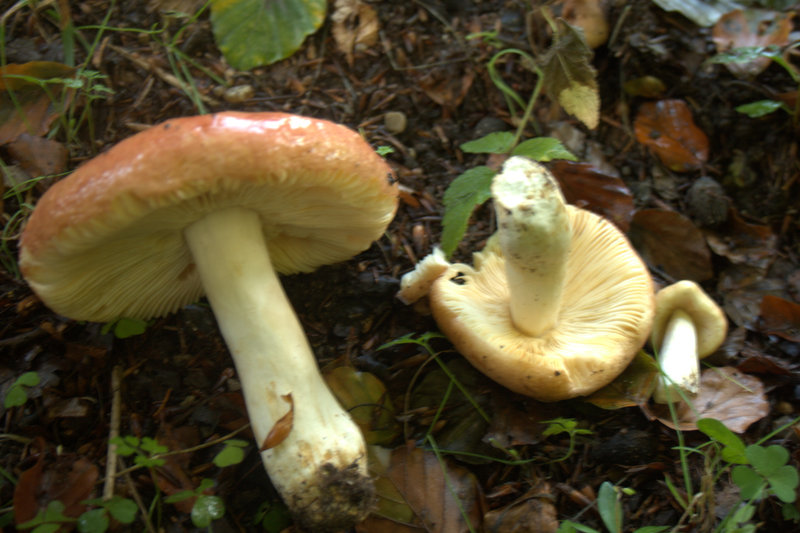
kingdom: Fungi
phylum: Basidiomycota
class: Agaricomycetes
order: Russulales
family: Russulaceae
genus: Russula
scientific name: Russula maculata
